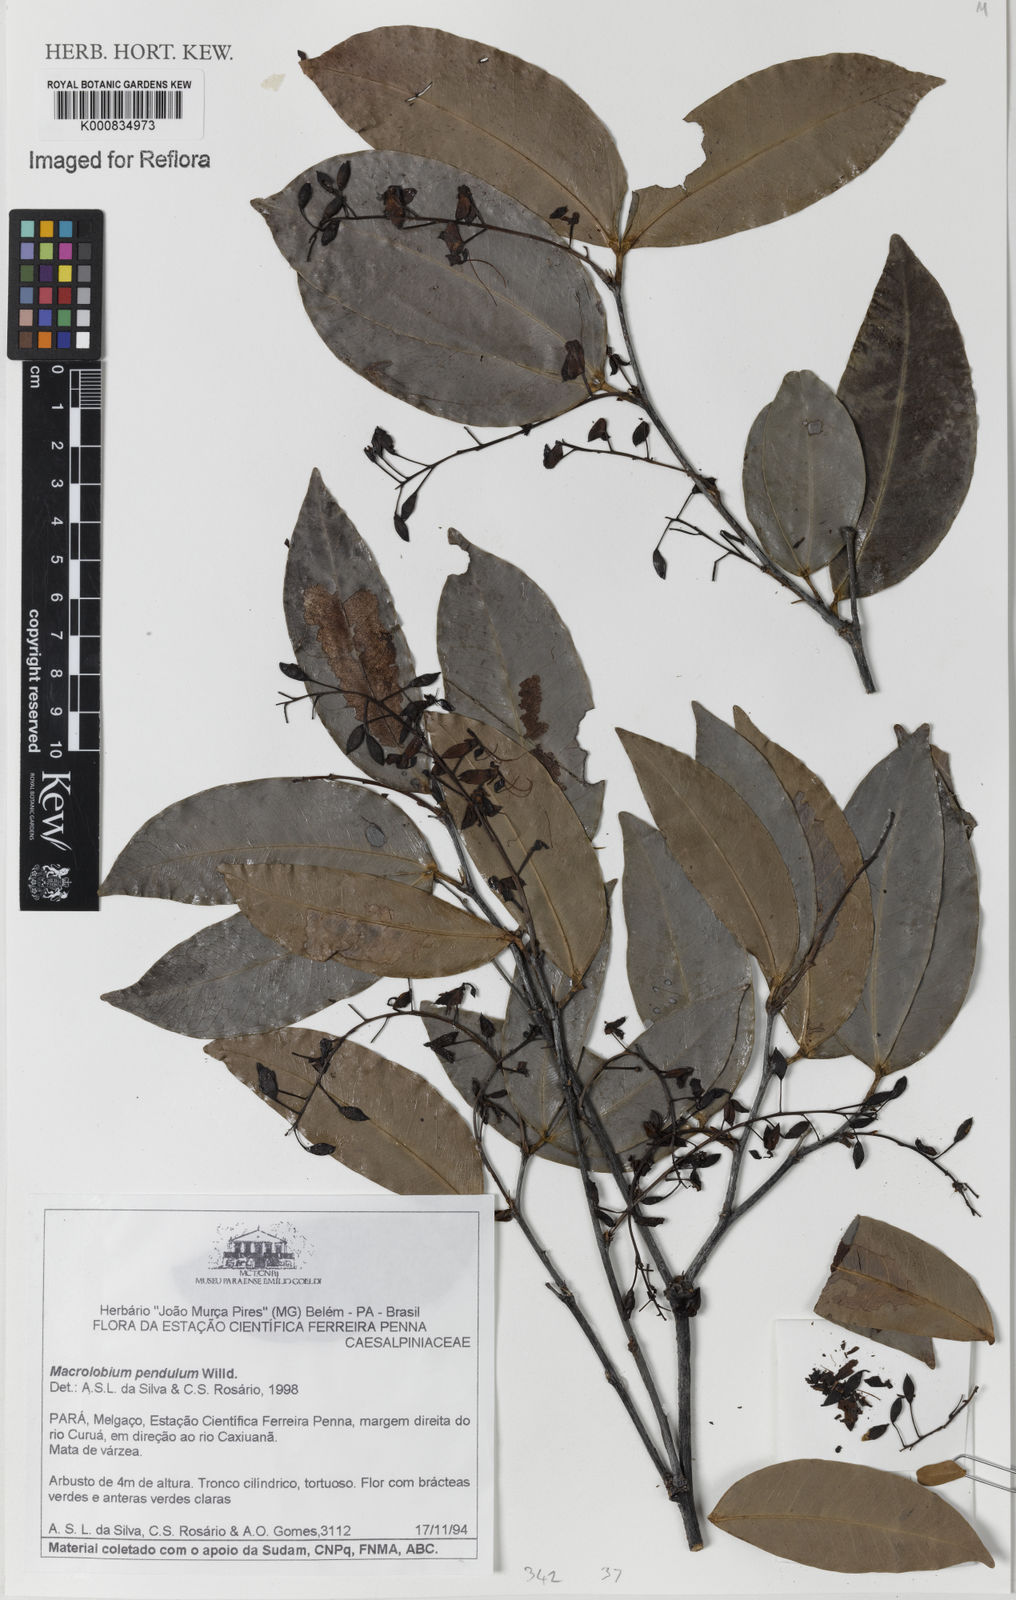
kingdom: Plantae
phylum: Tracheophyta
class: Magnoliopsida
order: Fabales
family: Fabaceae
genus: Macrolobium
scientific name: Macrolobium pendulum
